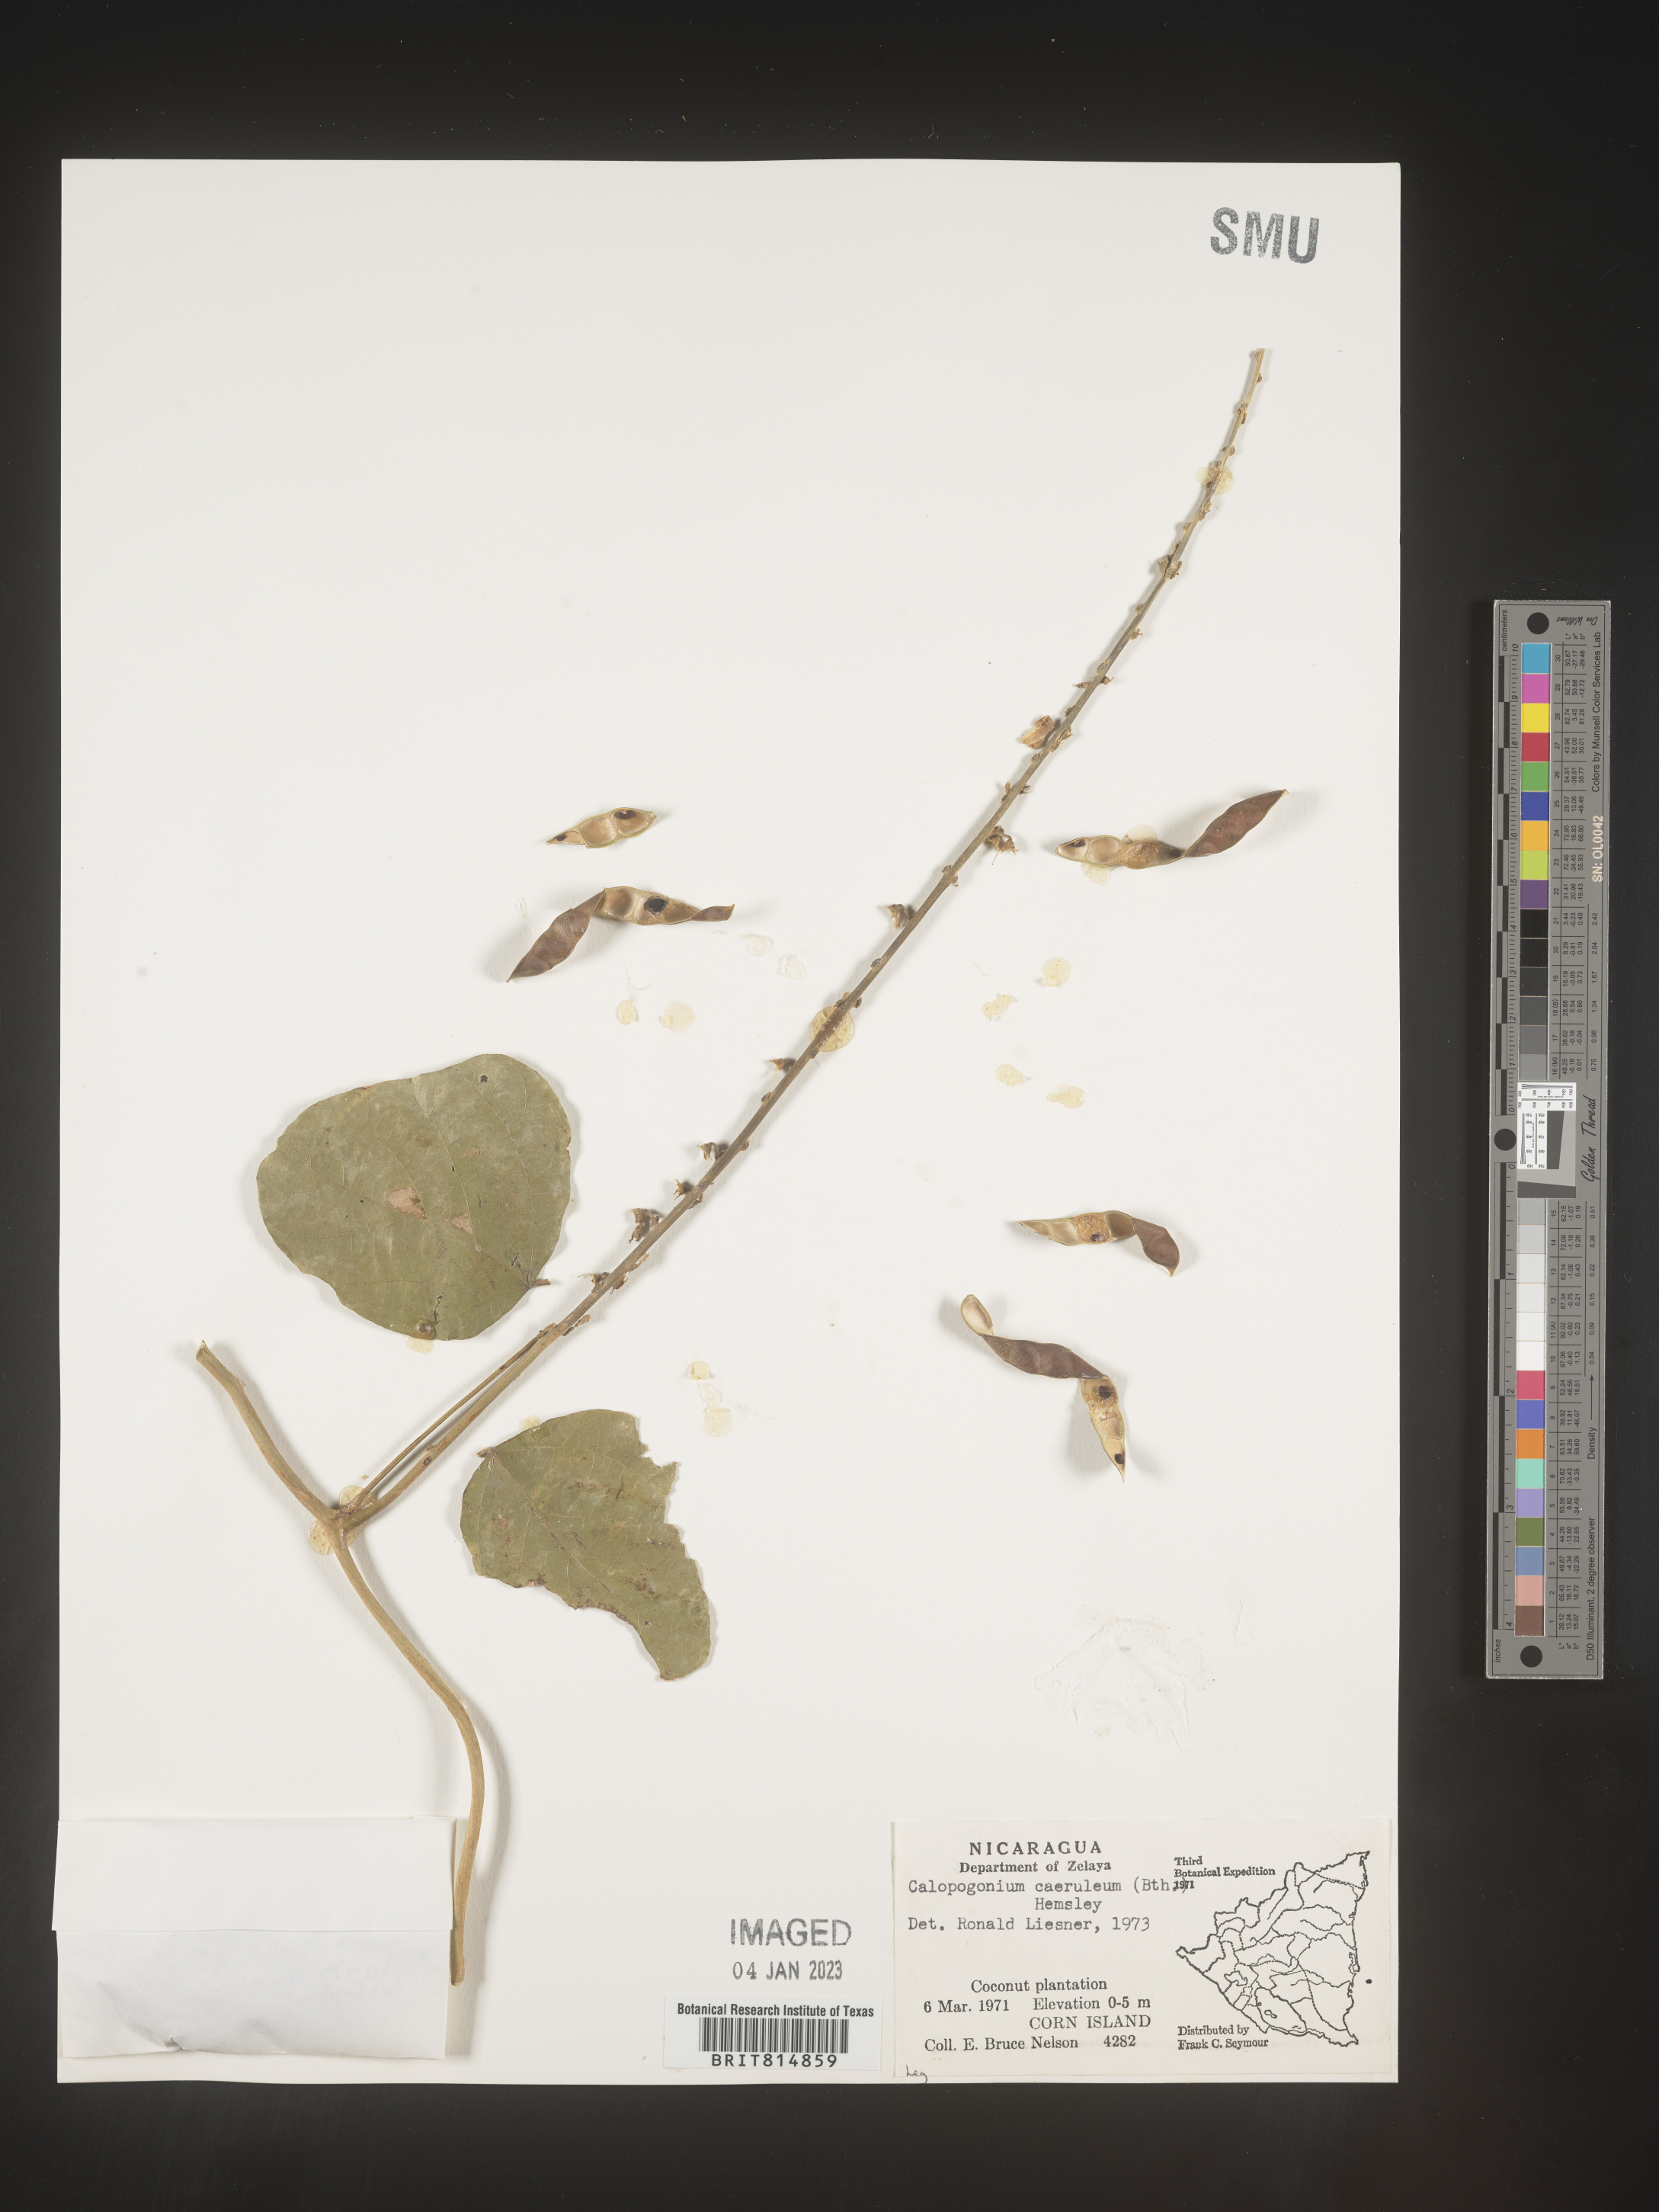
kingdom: Plantae
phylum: Tracheophyta
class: Magnoliopsida
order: Fabales
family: Fabaceae
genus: Calopogonium
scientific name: Calopogonium
